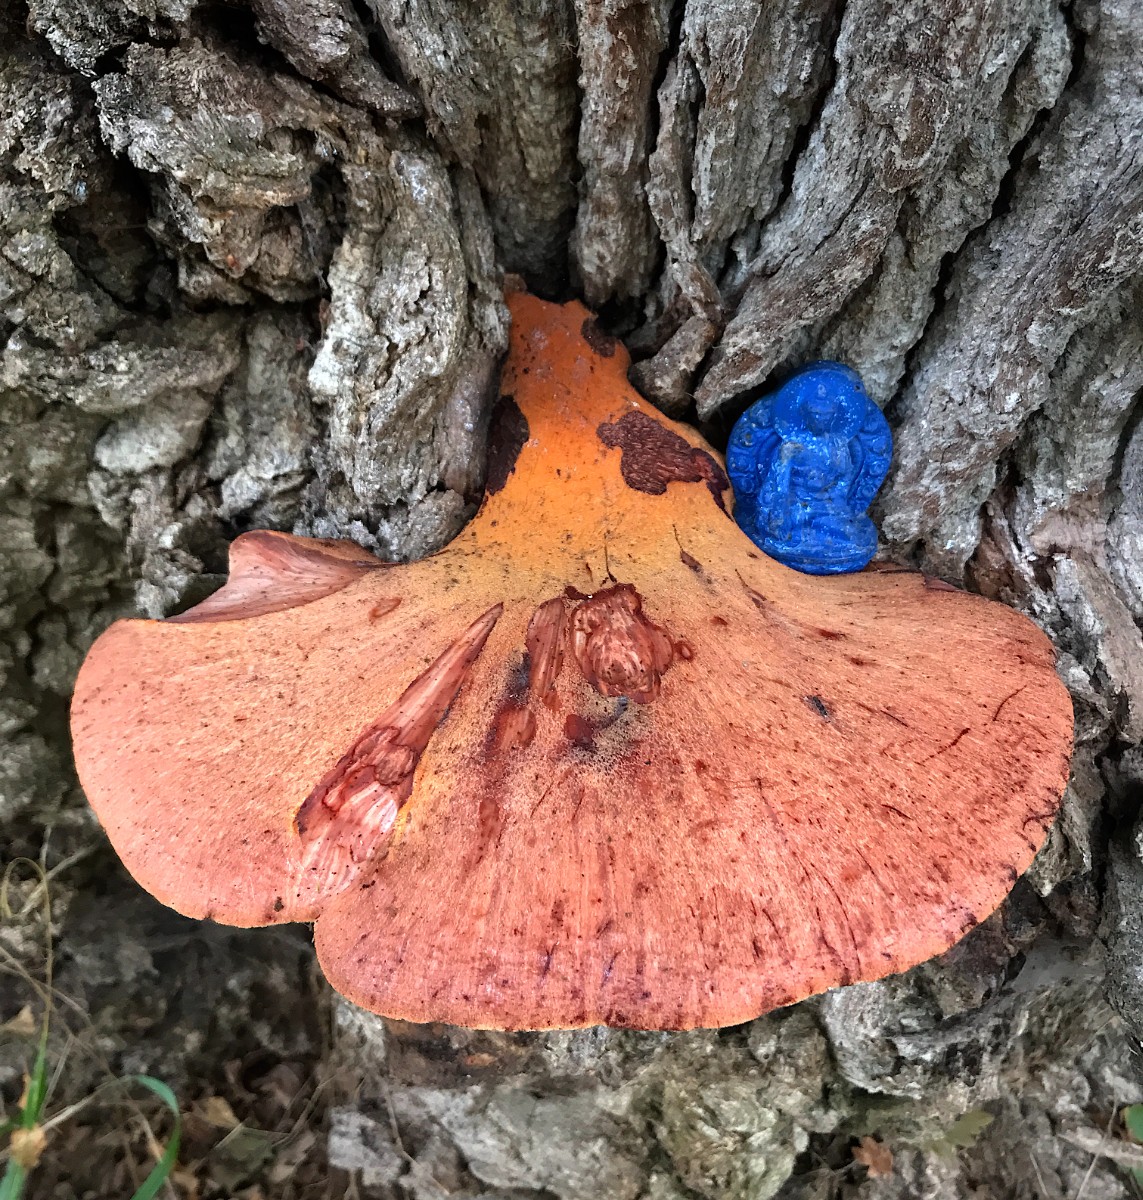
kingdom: Fungi
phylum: Basidiomycota
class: Agaricomycetes
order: Agaricales
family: Fistulinaceae
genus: Fistulina
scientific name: Fistulina hepatica
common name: oksetunge
